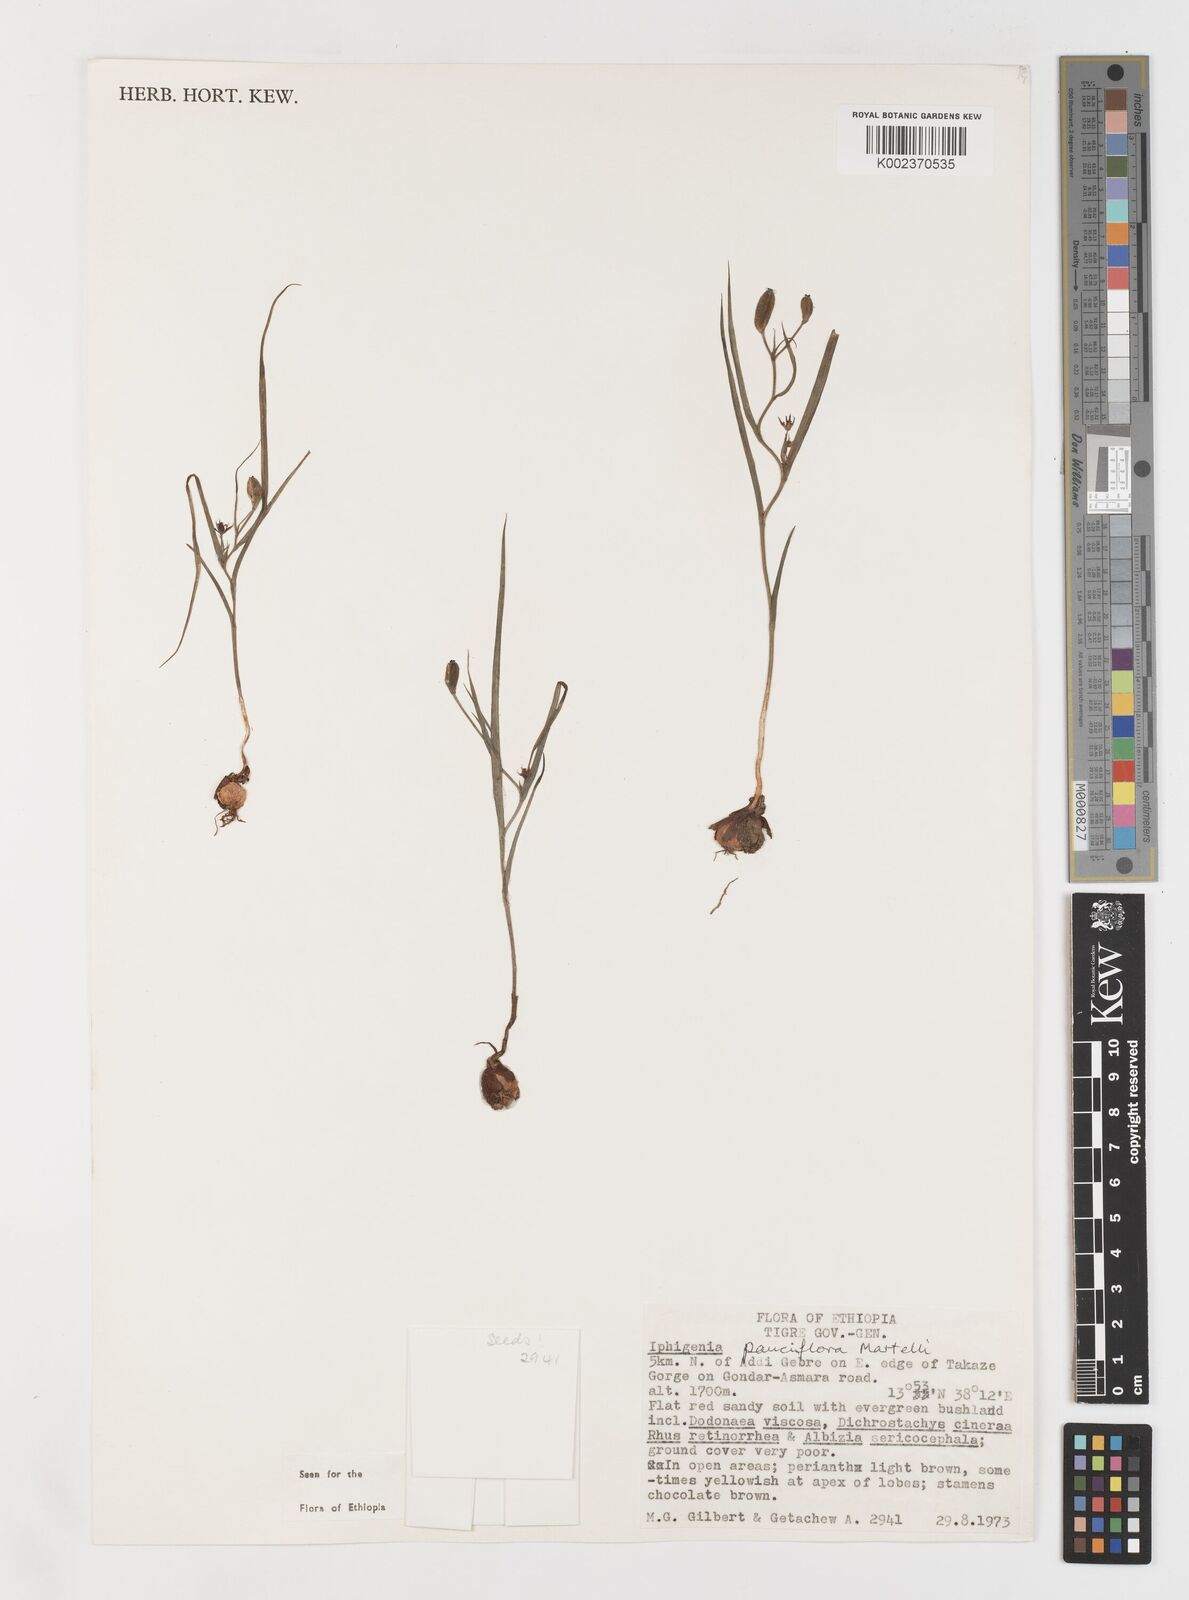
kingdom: Plantae
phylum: Tracheophyta
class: Liliopsida
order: Liliales
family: Colchicaceae
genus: Iphigenia
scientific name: Iphigenia pauciflora
